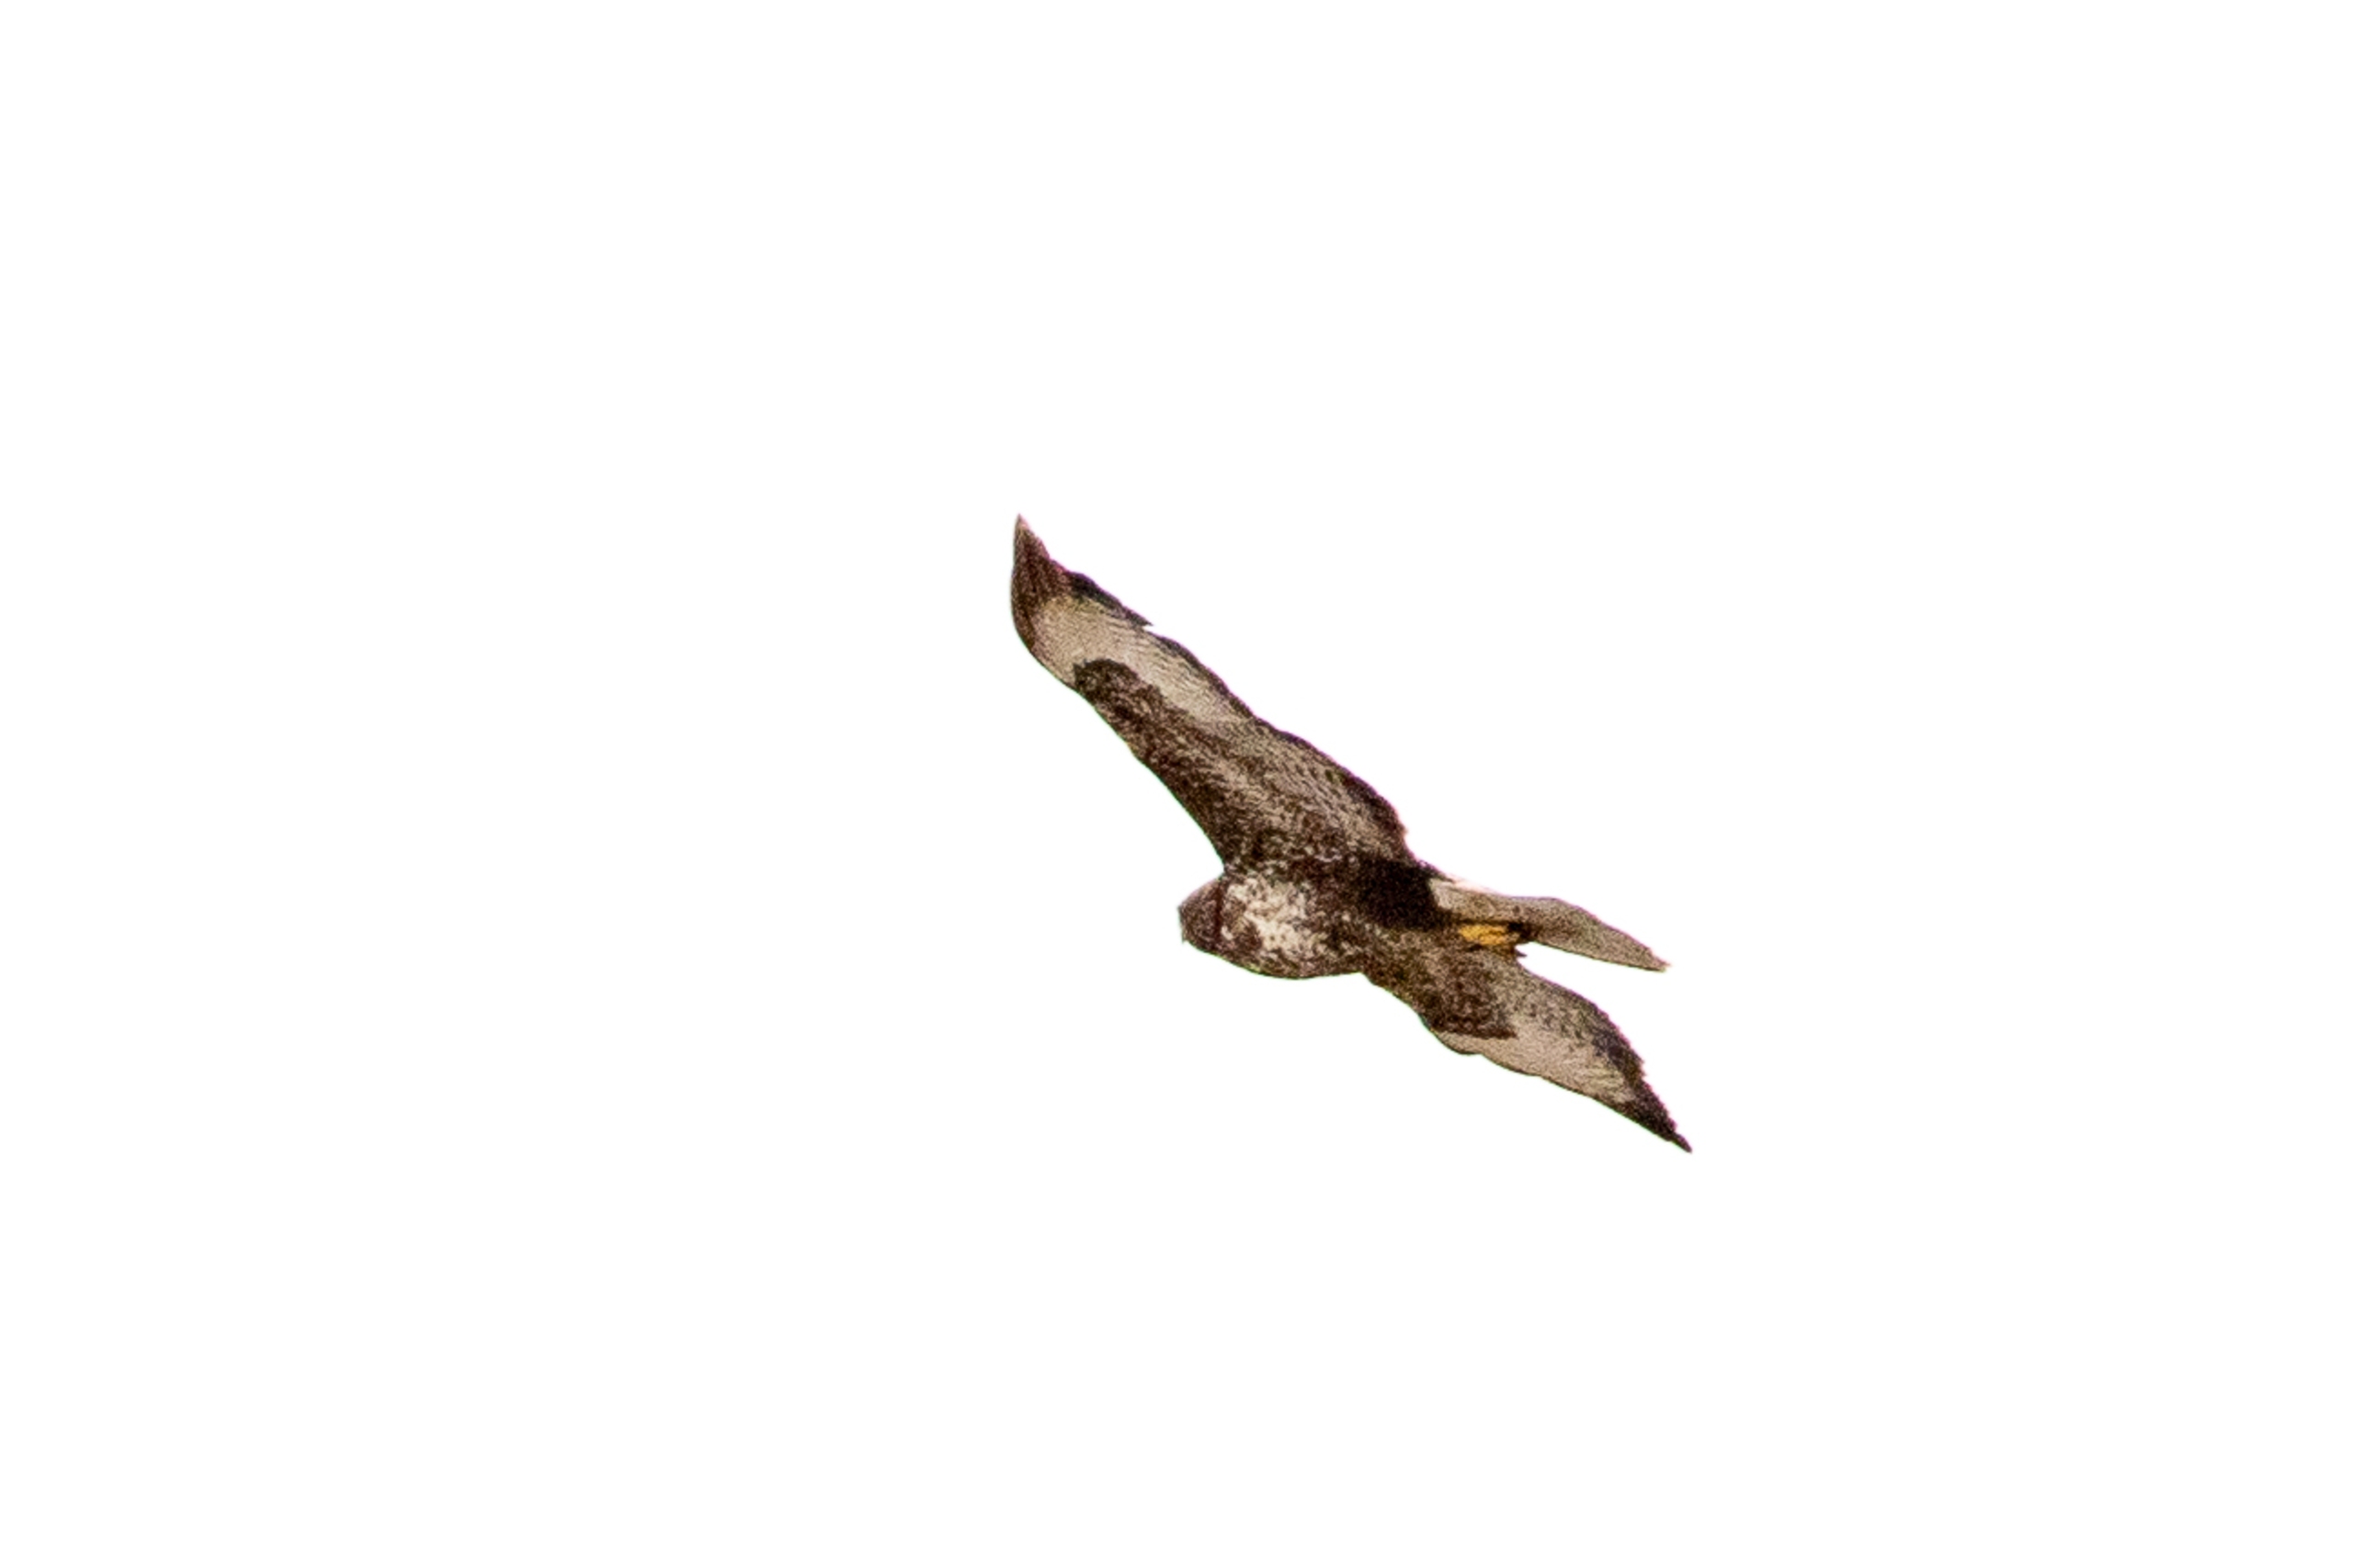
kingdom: Animalia
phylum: Chordata
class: Aves
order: Accipitriformes
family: Accipitridae
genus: Buteo
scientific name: Buteo buteo
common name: Musvåge
